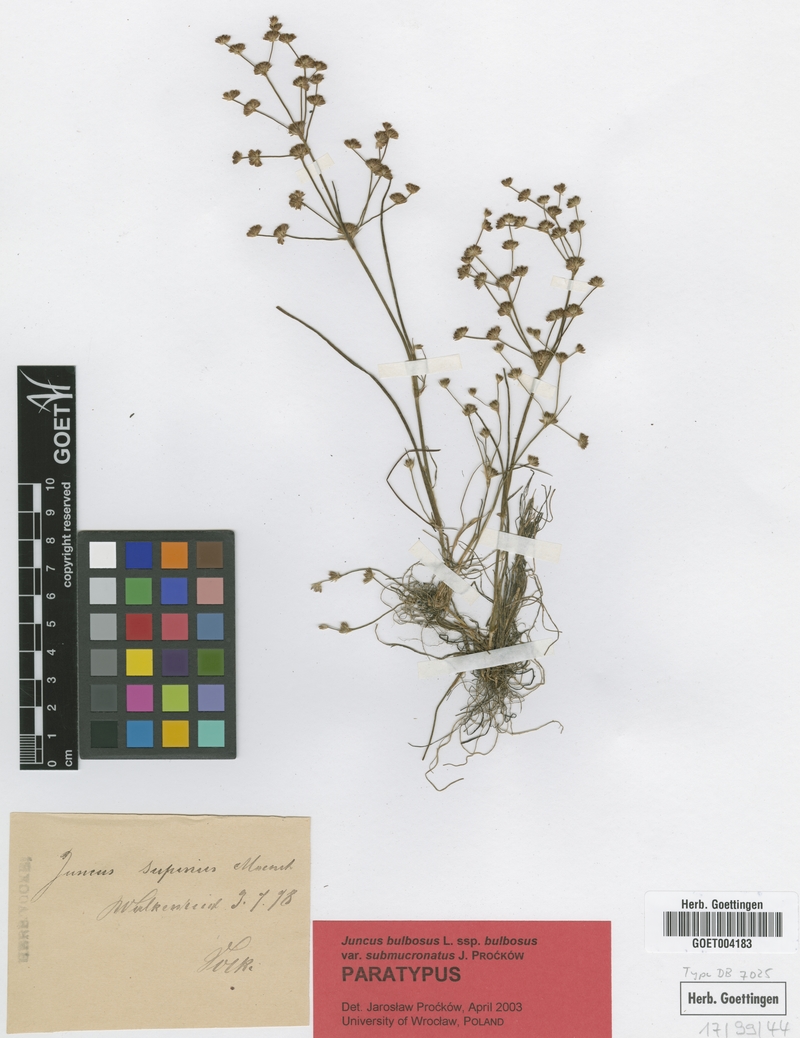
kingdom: Plantae
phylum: Tracheophyta
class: Liliopsida
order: Poales
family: Juncaceae
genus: Juncus
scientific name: Juncus bulbosus
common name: Bulbous rush
